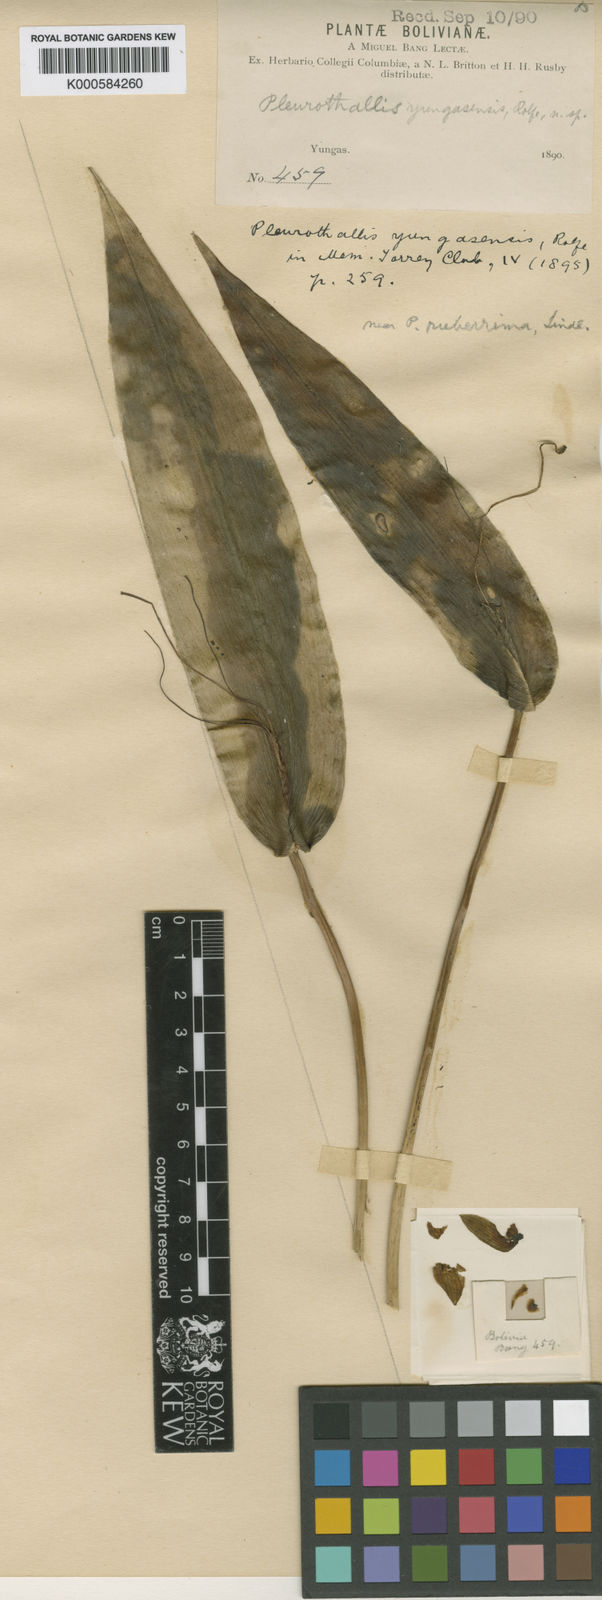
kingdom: Plantae
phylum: Tracheophyta
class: Liliopsida
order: Asparagales
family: Orchidaceae
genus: Pleurothallis
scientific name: Pleurothallis ruberrima
